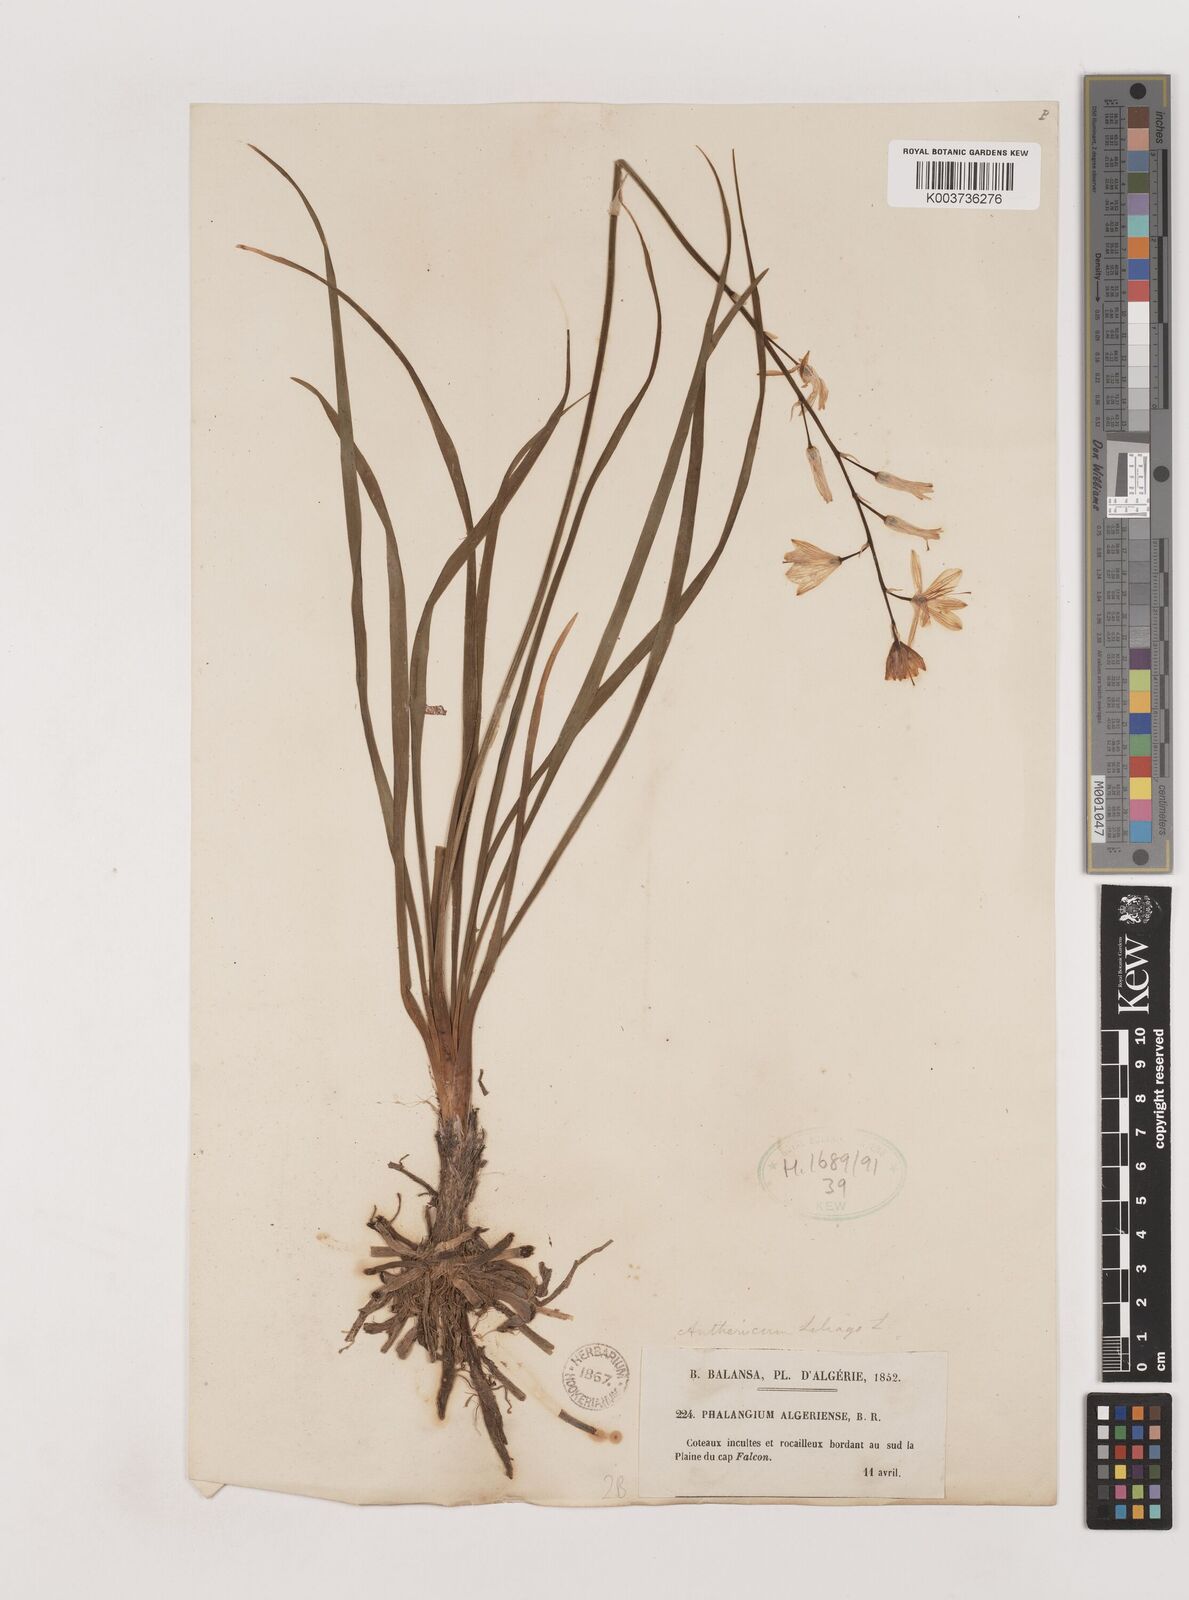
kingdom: Plantae
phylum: Tracheophyta
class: Liliopsida
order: Asparagales
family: Asparagaceae
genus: Anthericum
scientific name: Anthericum liliago
